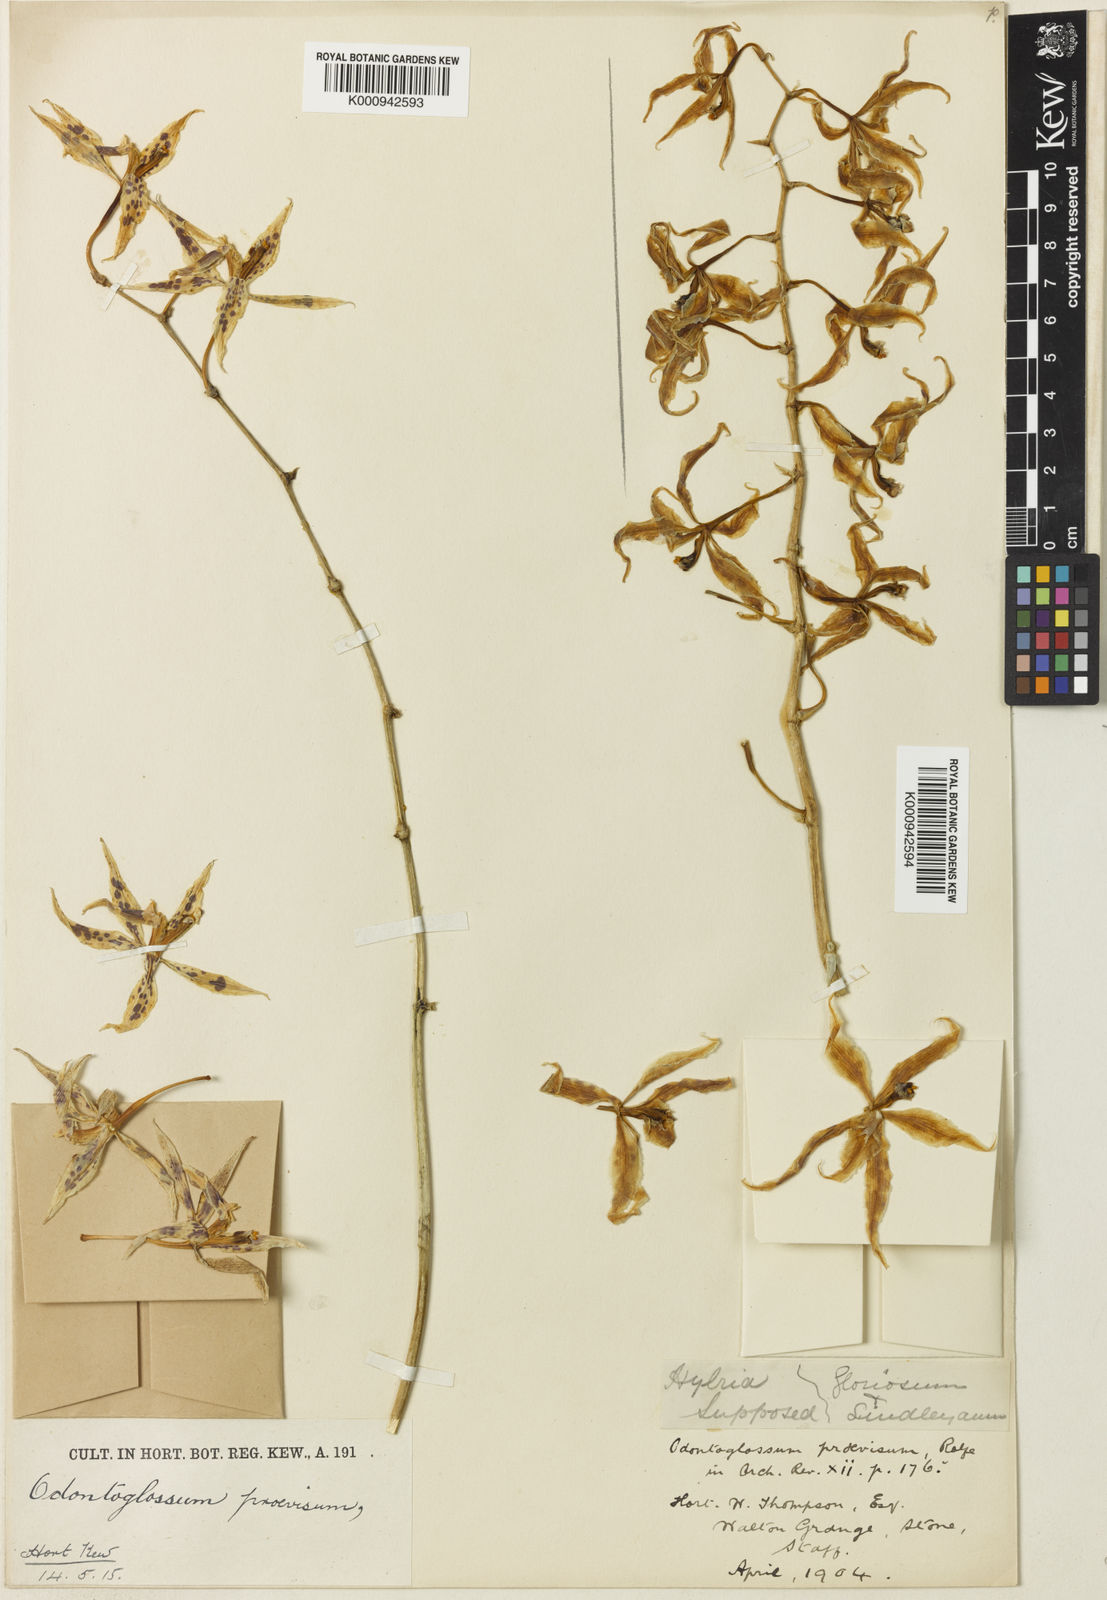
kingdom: Plantae
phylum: Tracheophyta
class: Liliopsida
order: Asparagales
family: Orchidaceae
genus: Oncidium
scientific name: Oncidium
